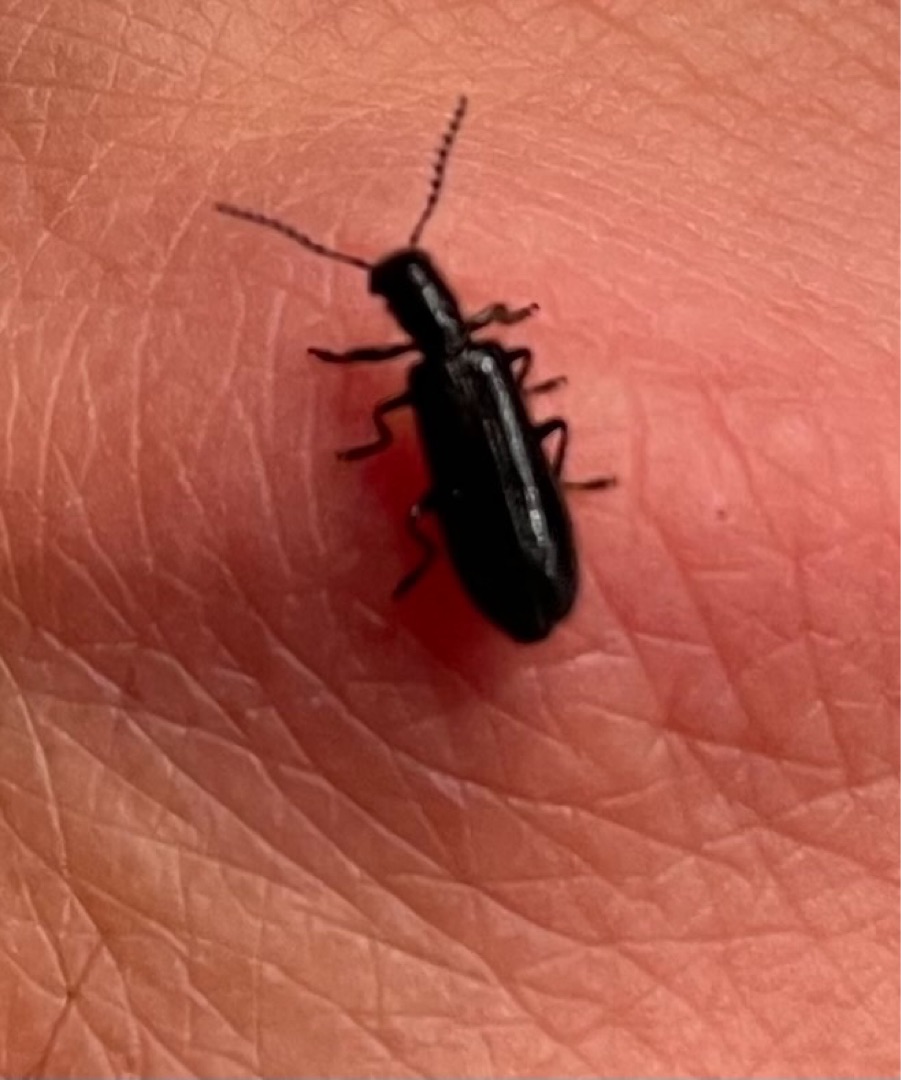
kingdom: Animalia
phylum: Arthropoda
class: Insecta
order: Coleoptera
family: Cleridae
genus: Tillus
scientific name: Tillus elongatus
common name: Blank myrebille
